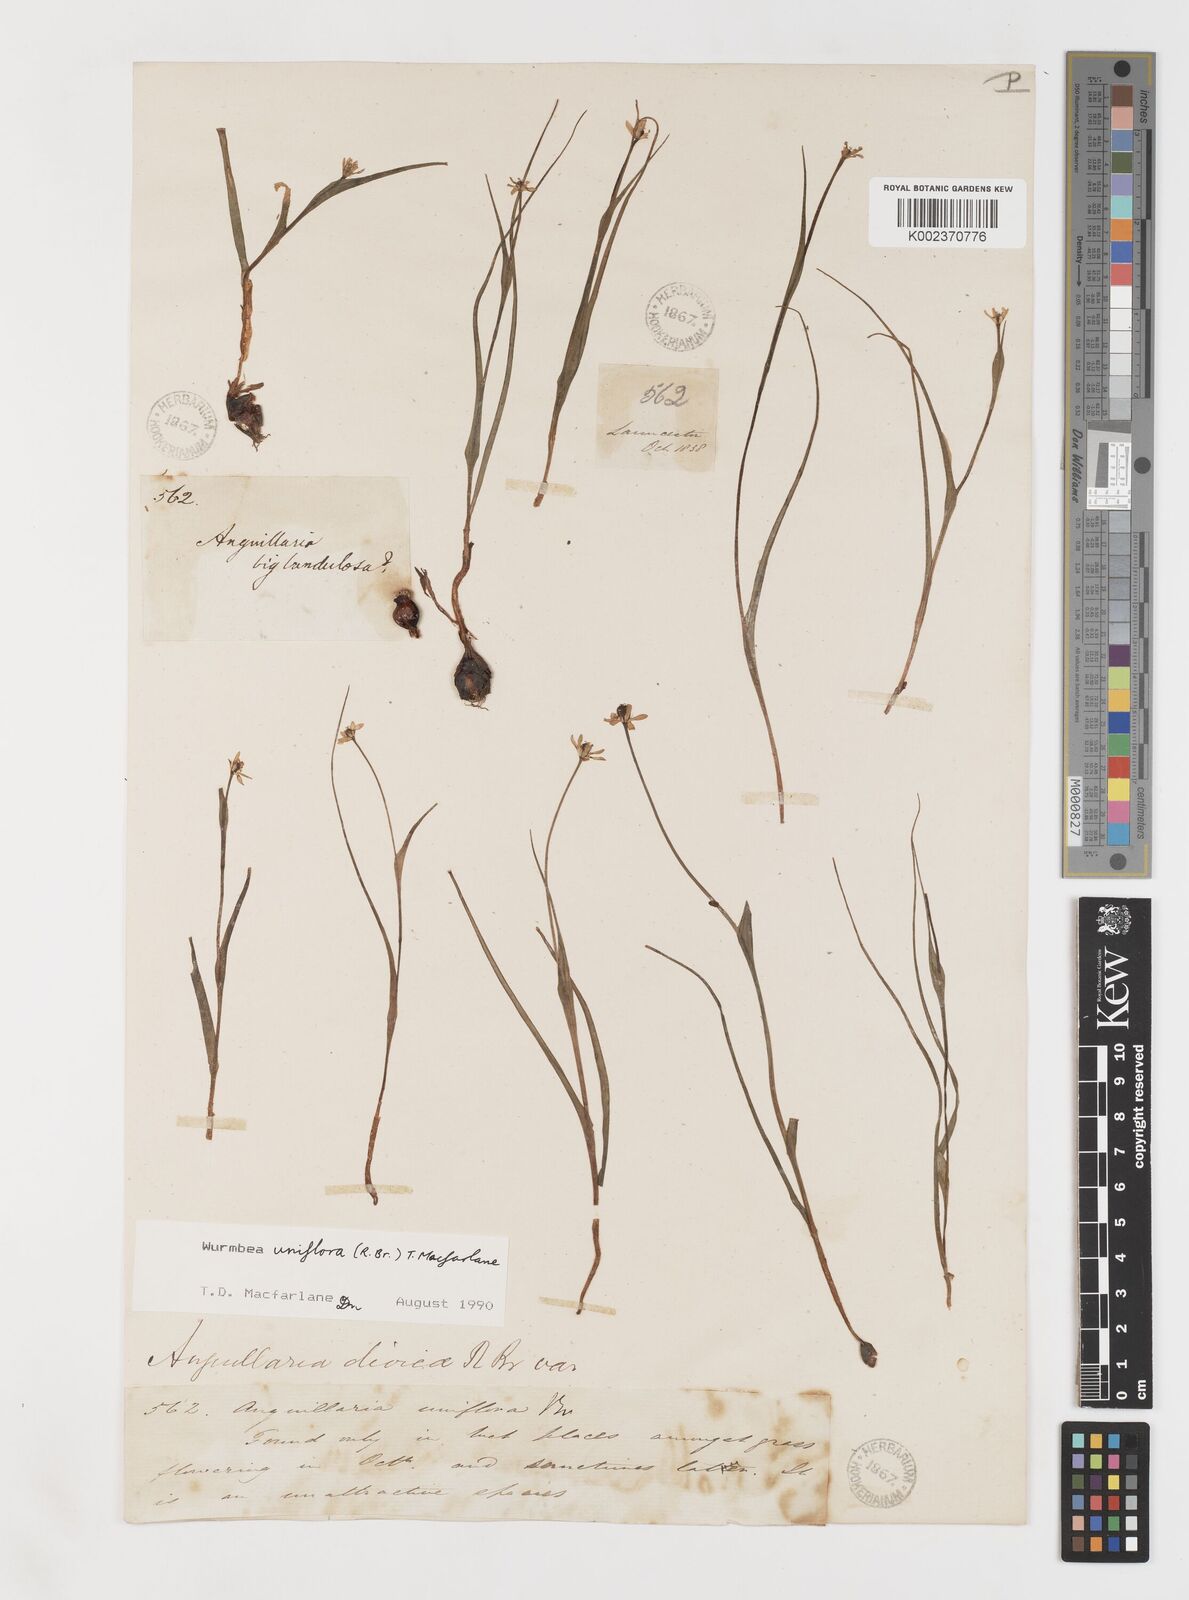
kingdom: Plantae
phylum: Tracheophyta
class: Liliopsida
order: Liliales
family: Colchicaceae
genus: Wurmbea
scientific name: Wurmbea uniflora
